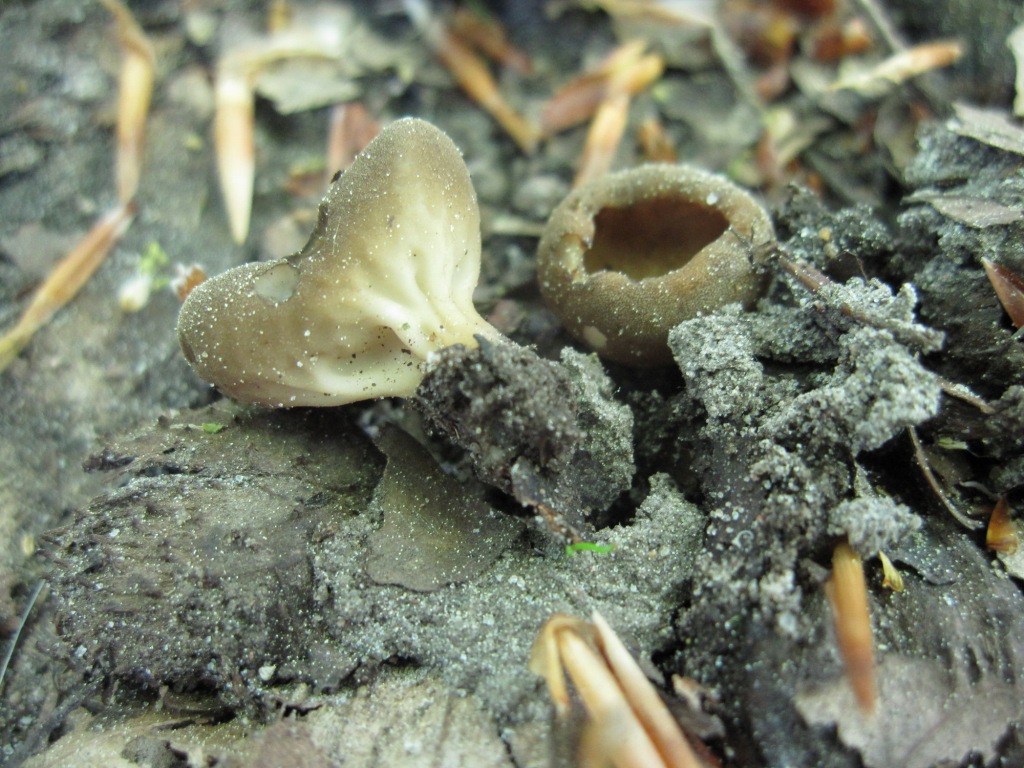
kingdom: Fungi
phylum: Ascomycota
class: Pezizomycetes
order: Pezizales
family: Helvellaceae
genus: Helvella
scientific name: Helvella acetabulum
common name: pokal-foldhat
